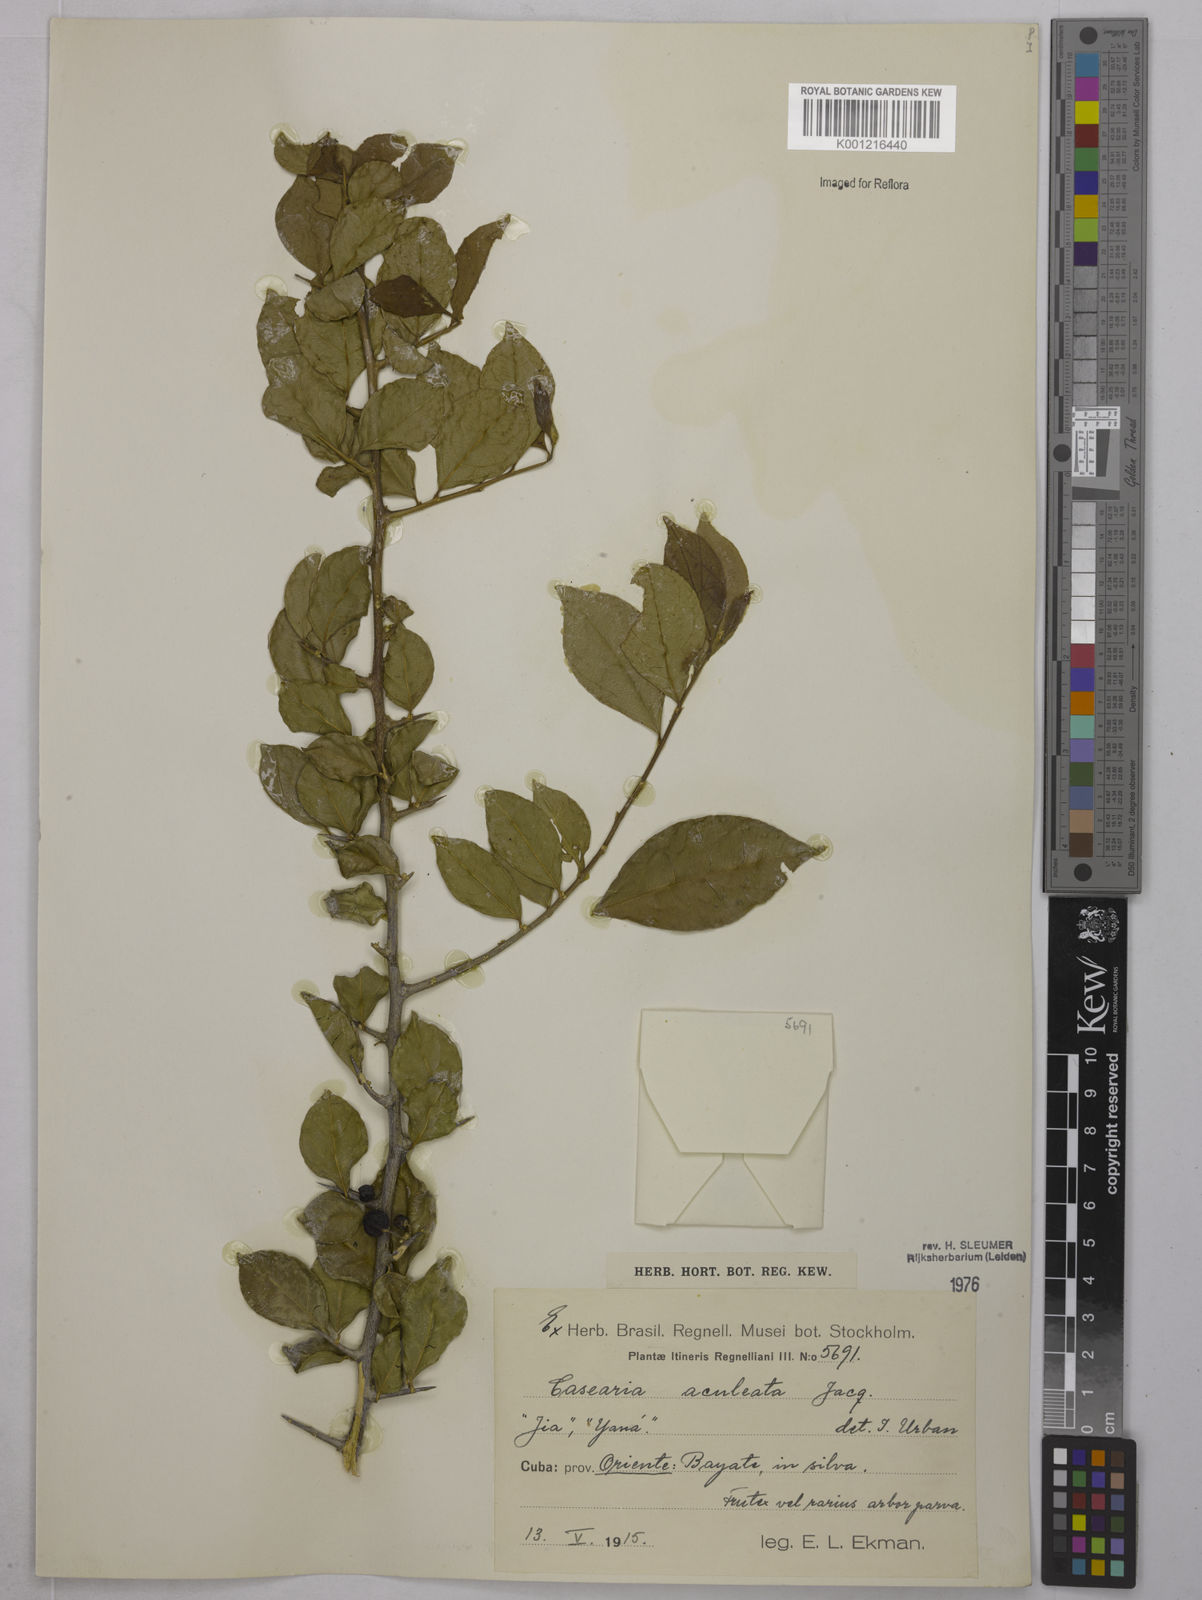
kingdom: Plantae
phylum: Tracheophyta
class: Magnoliopsida
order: Magnoliales
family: Annonaceae
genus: Anaxagorea
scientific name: Anaxagorea dolichocarpa
